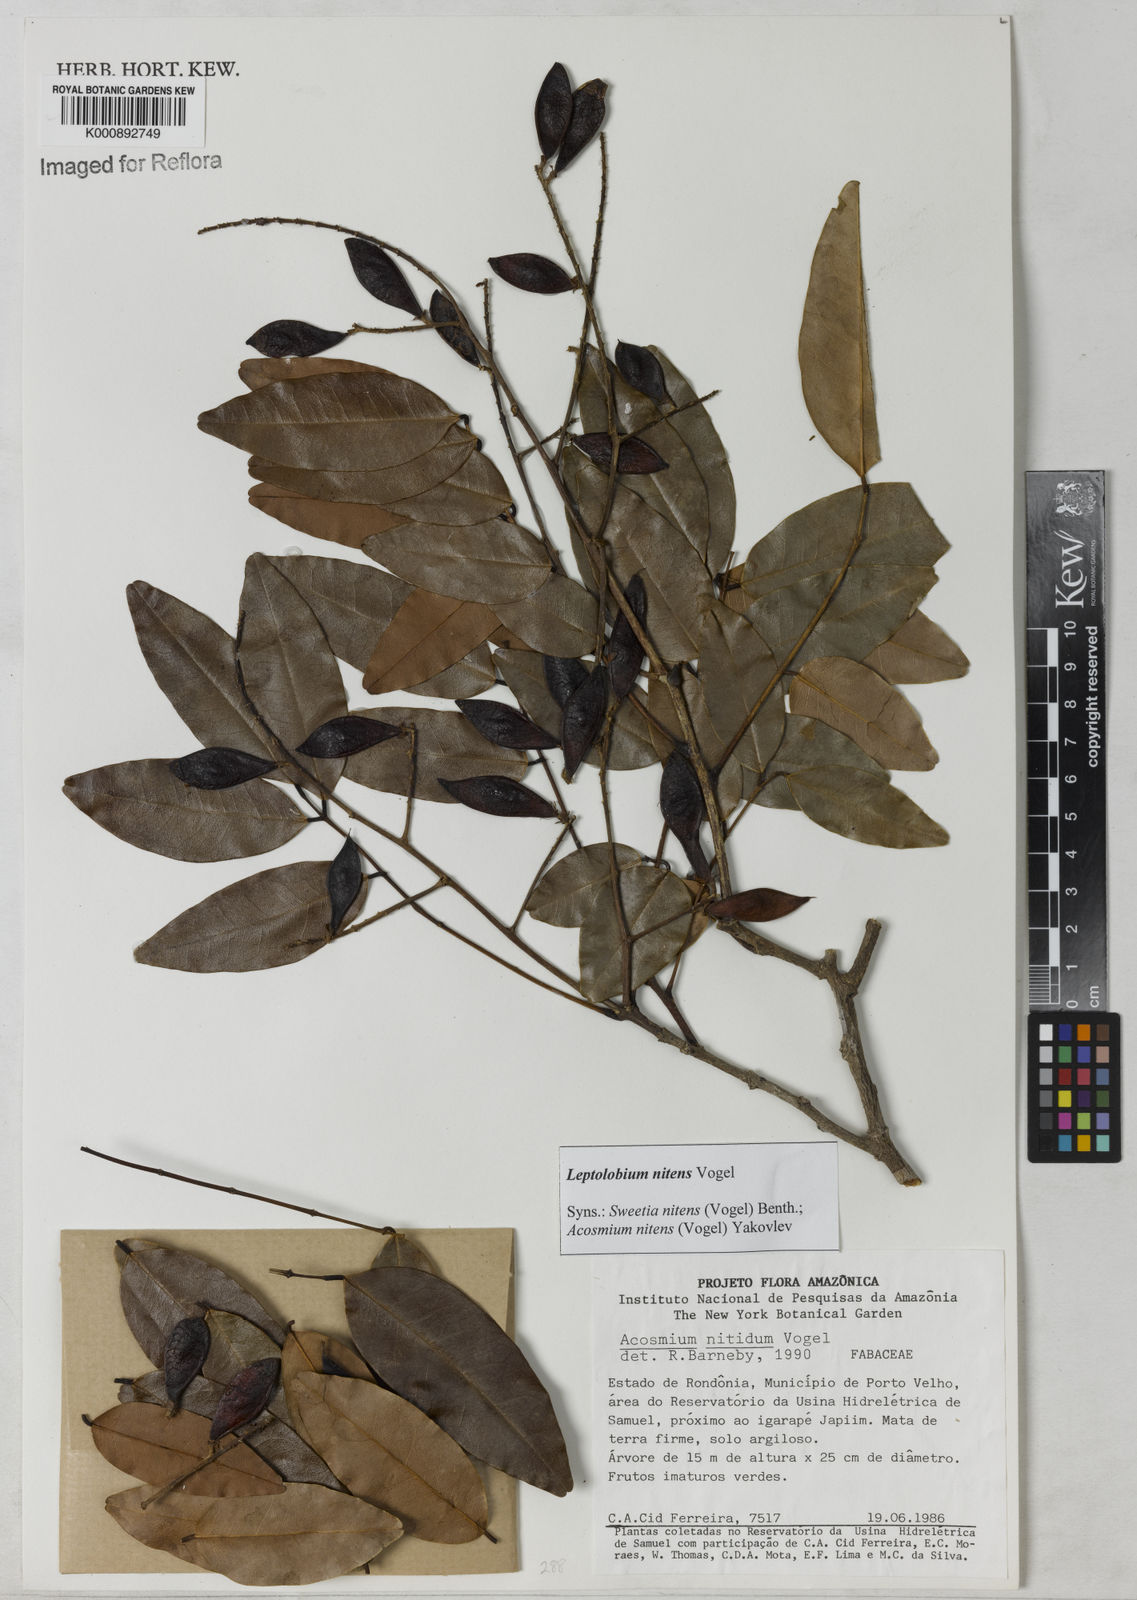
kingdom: Plantae
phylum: Tracheophyta
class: Magnoliopsida
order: Fabales
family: Fabaceae
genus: Leptolobium
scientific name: Leptolobium nitens
